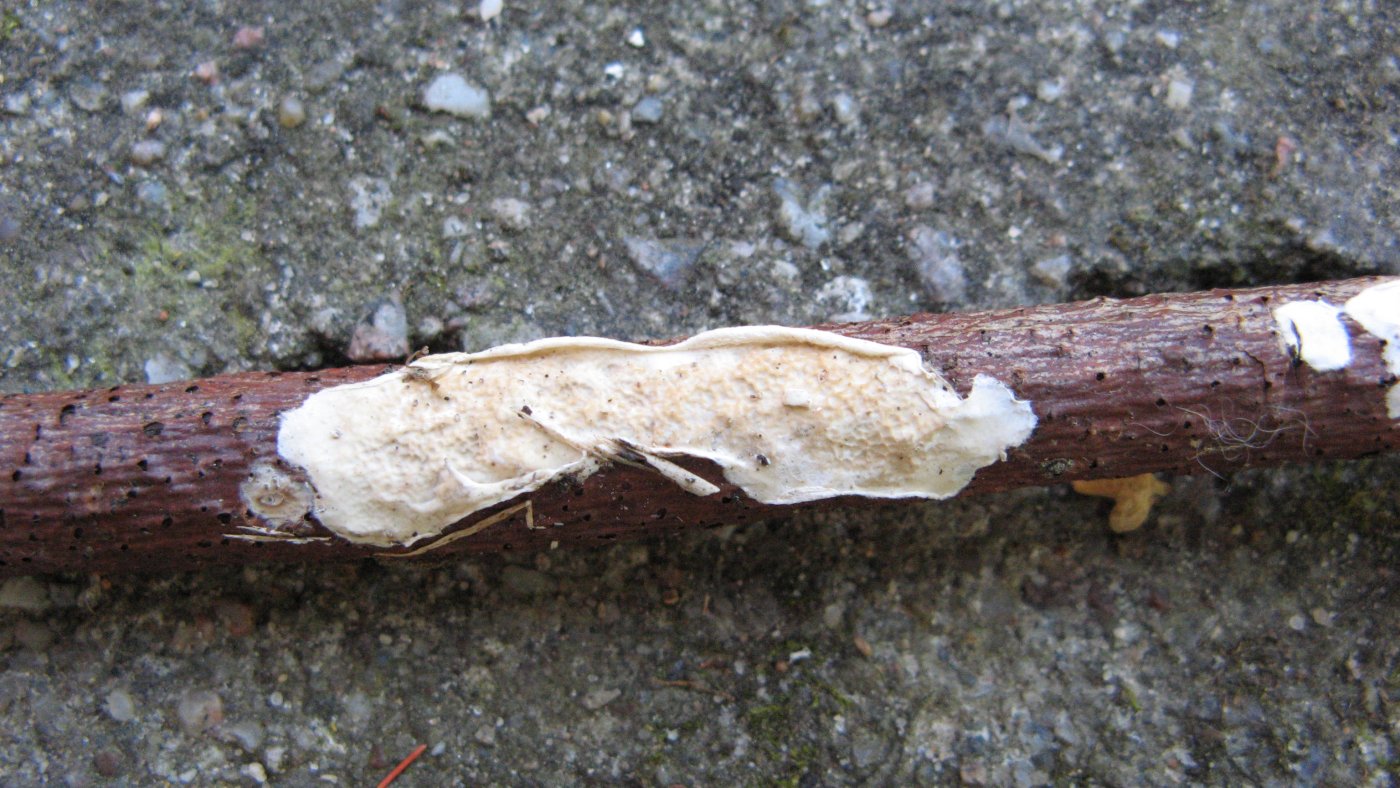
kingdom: Fungi
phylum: Basidiomycota
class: Agaricomycetes
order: Polyporales
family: Irpicaceae
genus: Byssomerulius
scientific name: Byssomerulius corium
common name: læder-åresvamp
